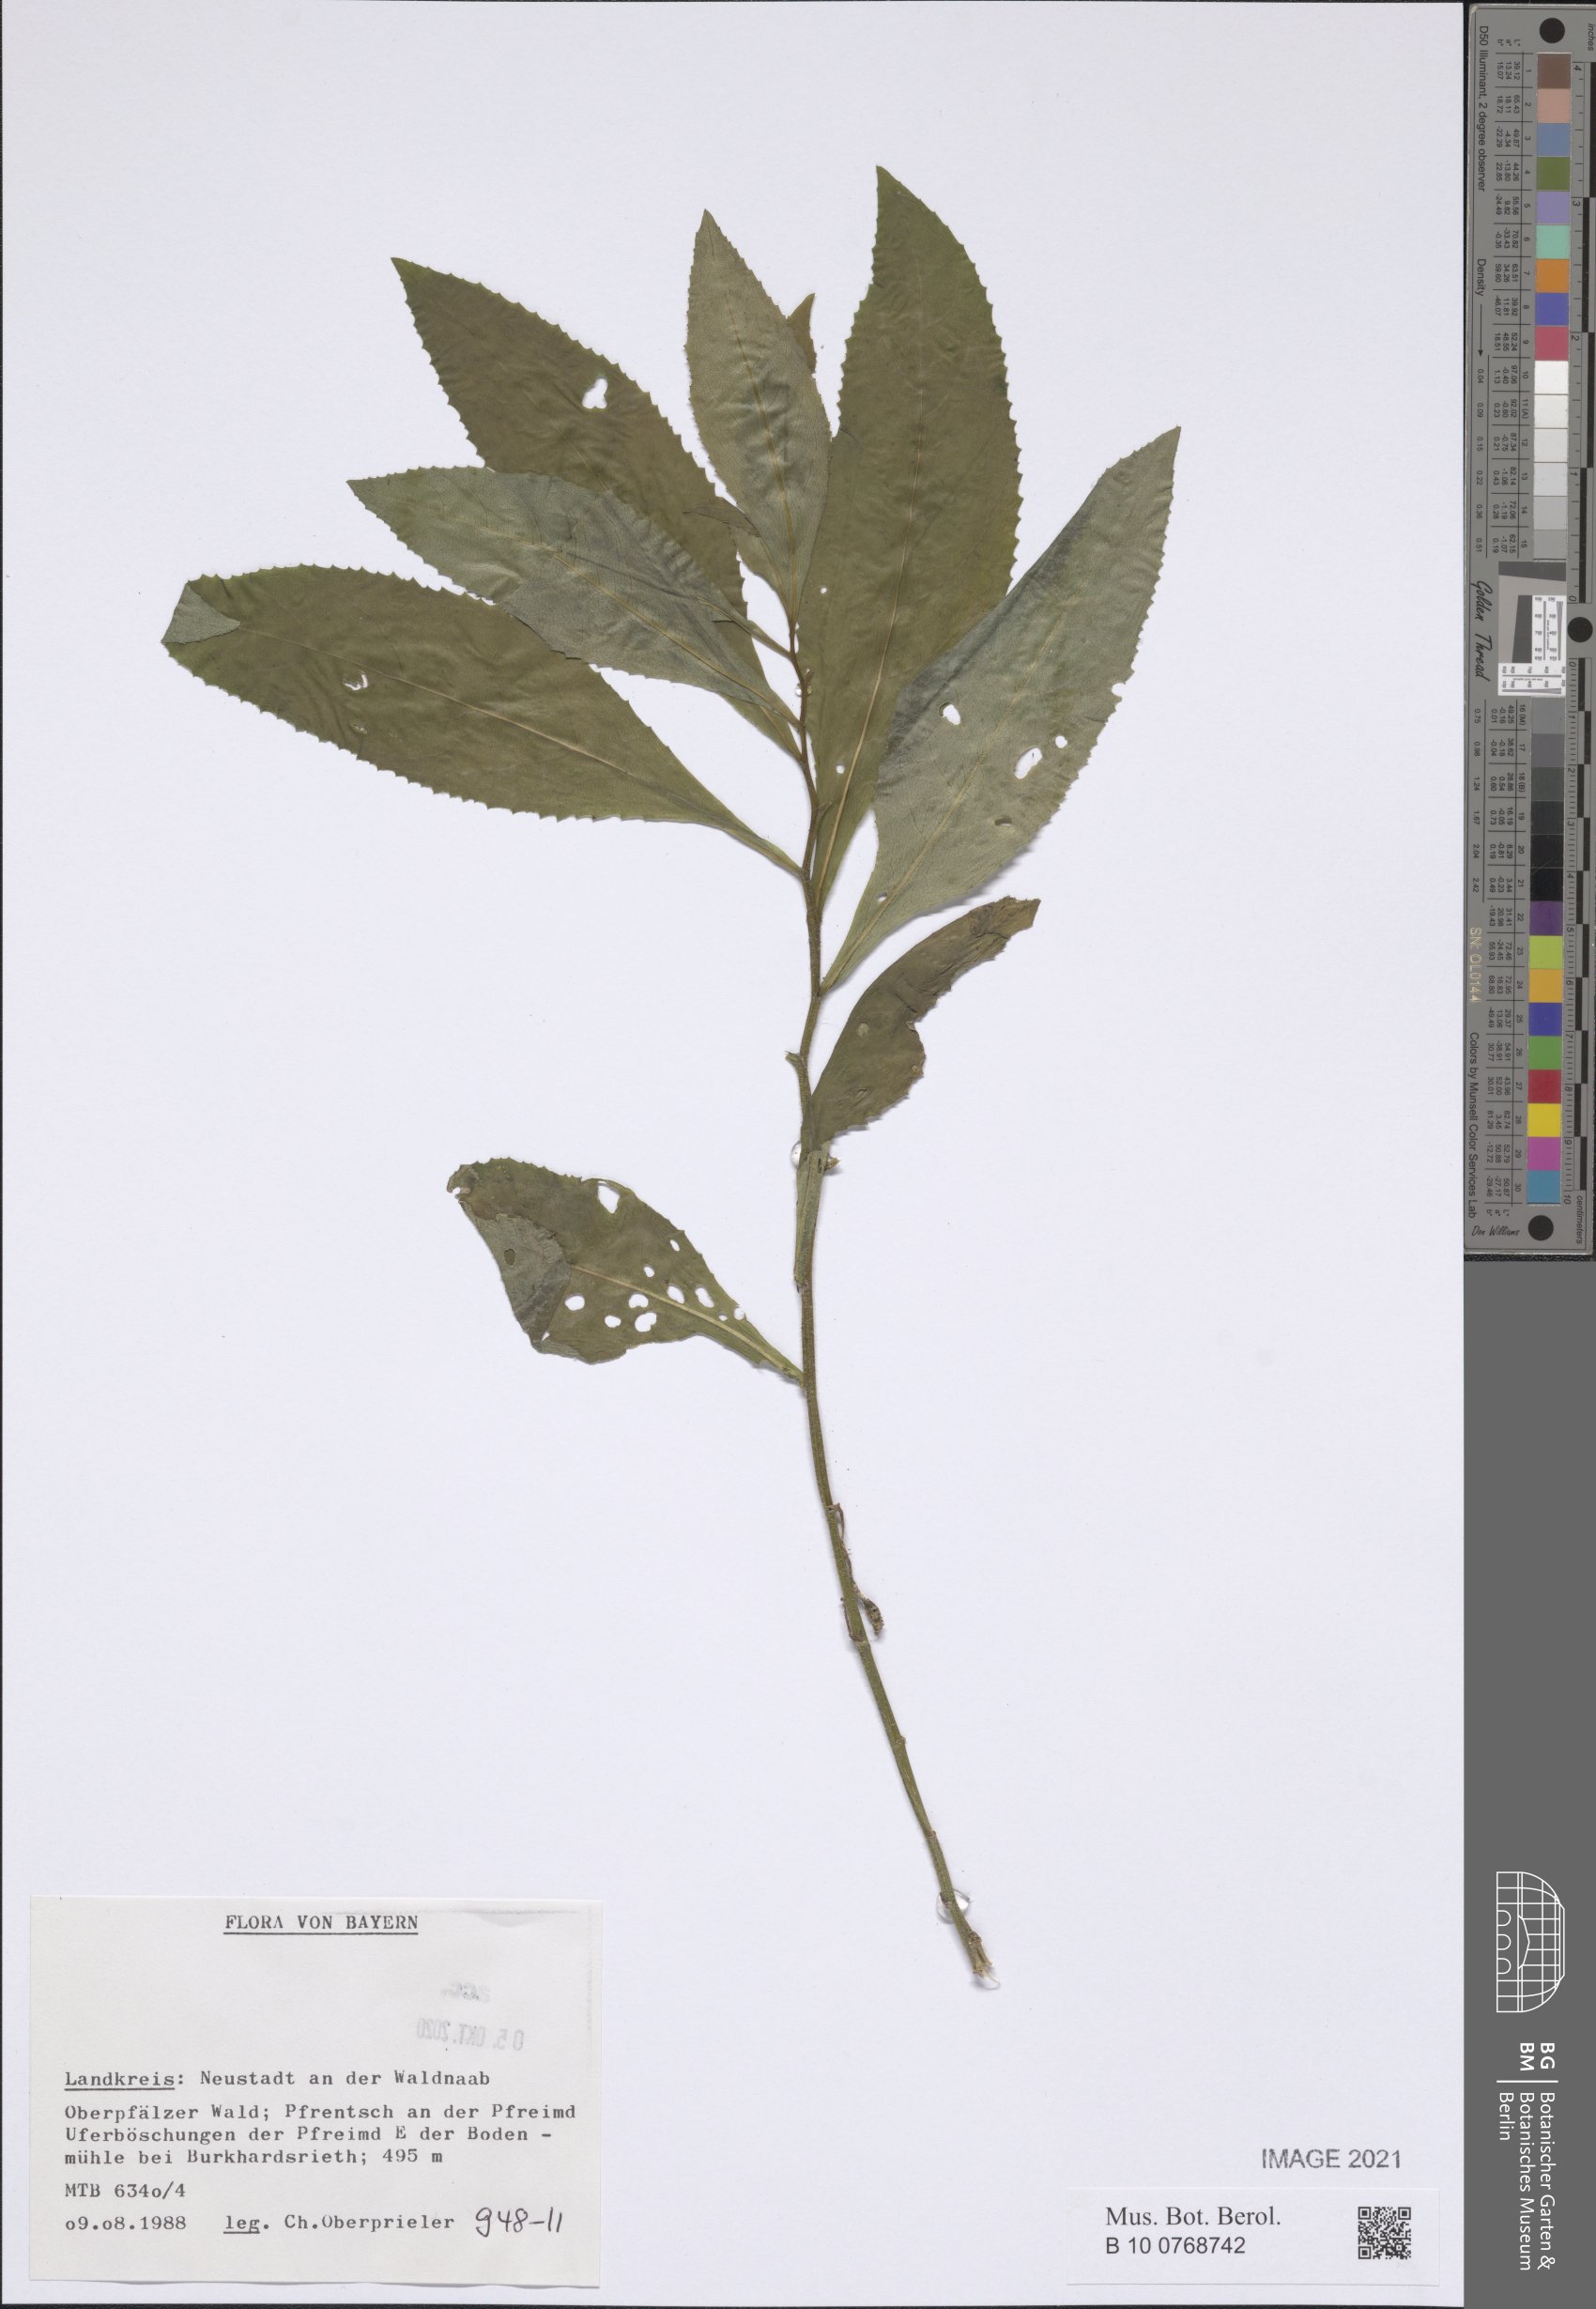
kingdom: Plantae
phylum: Tracheophyta
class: Magnoliopsida
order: Asterales
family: Asteraceae
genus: Senecio
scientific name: Senecio
